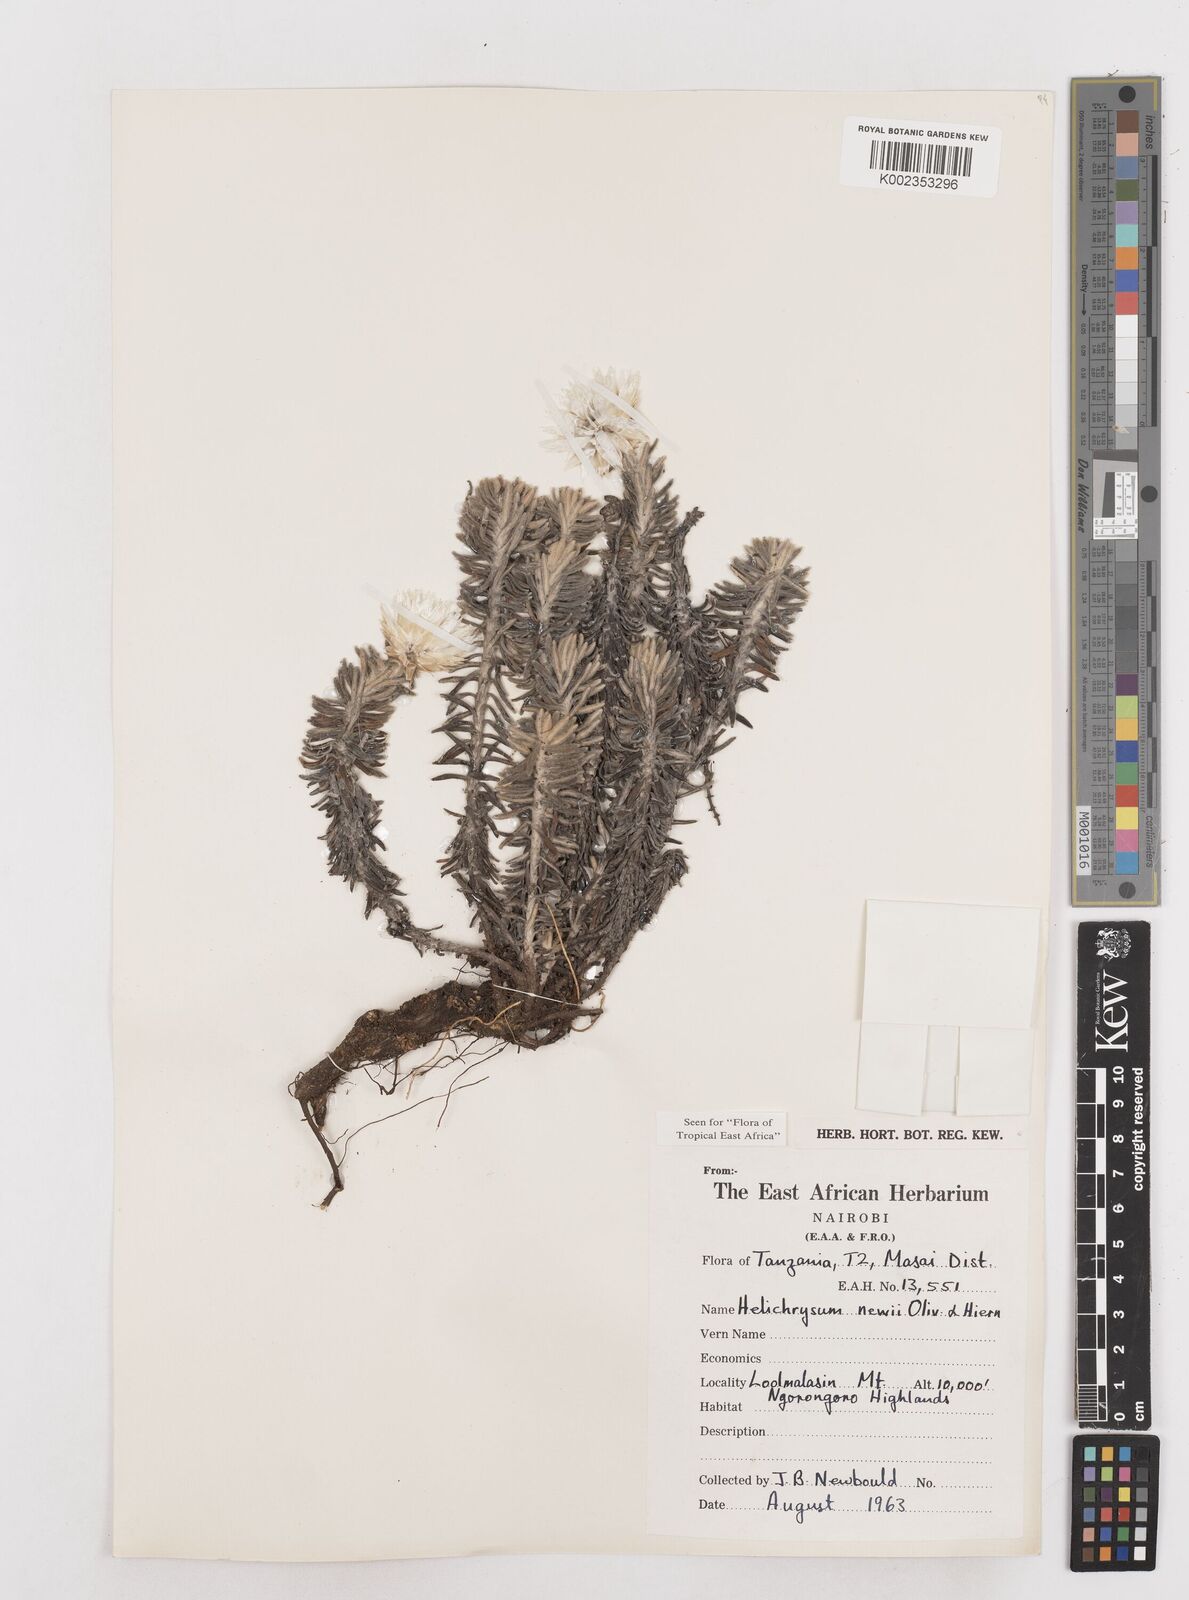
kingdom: Plantae
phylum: Tracheophyta
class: Magnoliopsida
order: Asterales
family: Asteraceae
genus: Helichrysum
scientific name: Helichrysum newii
